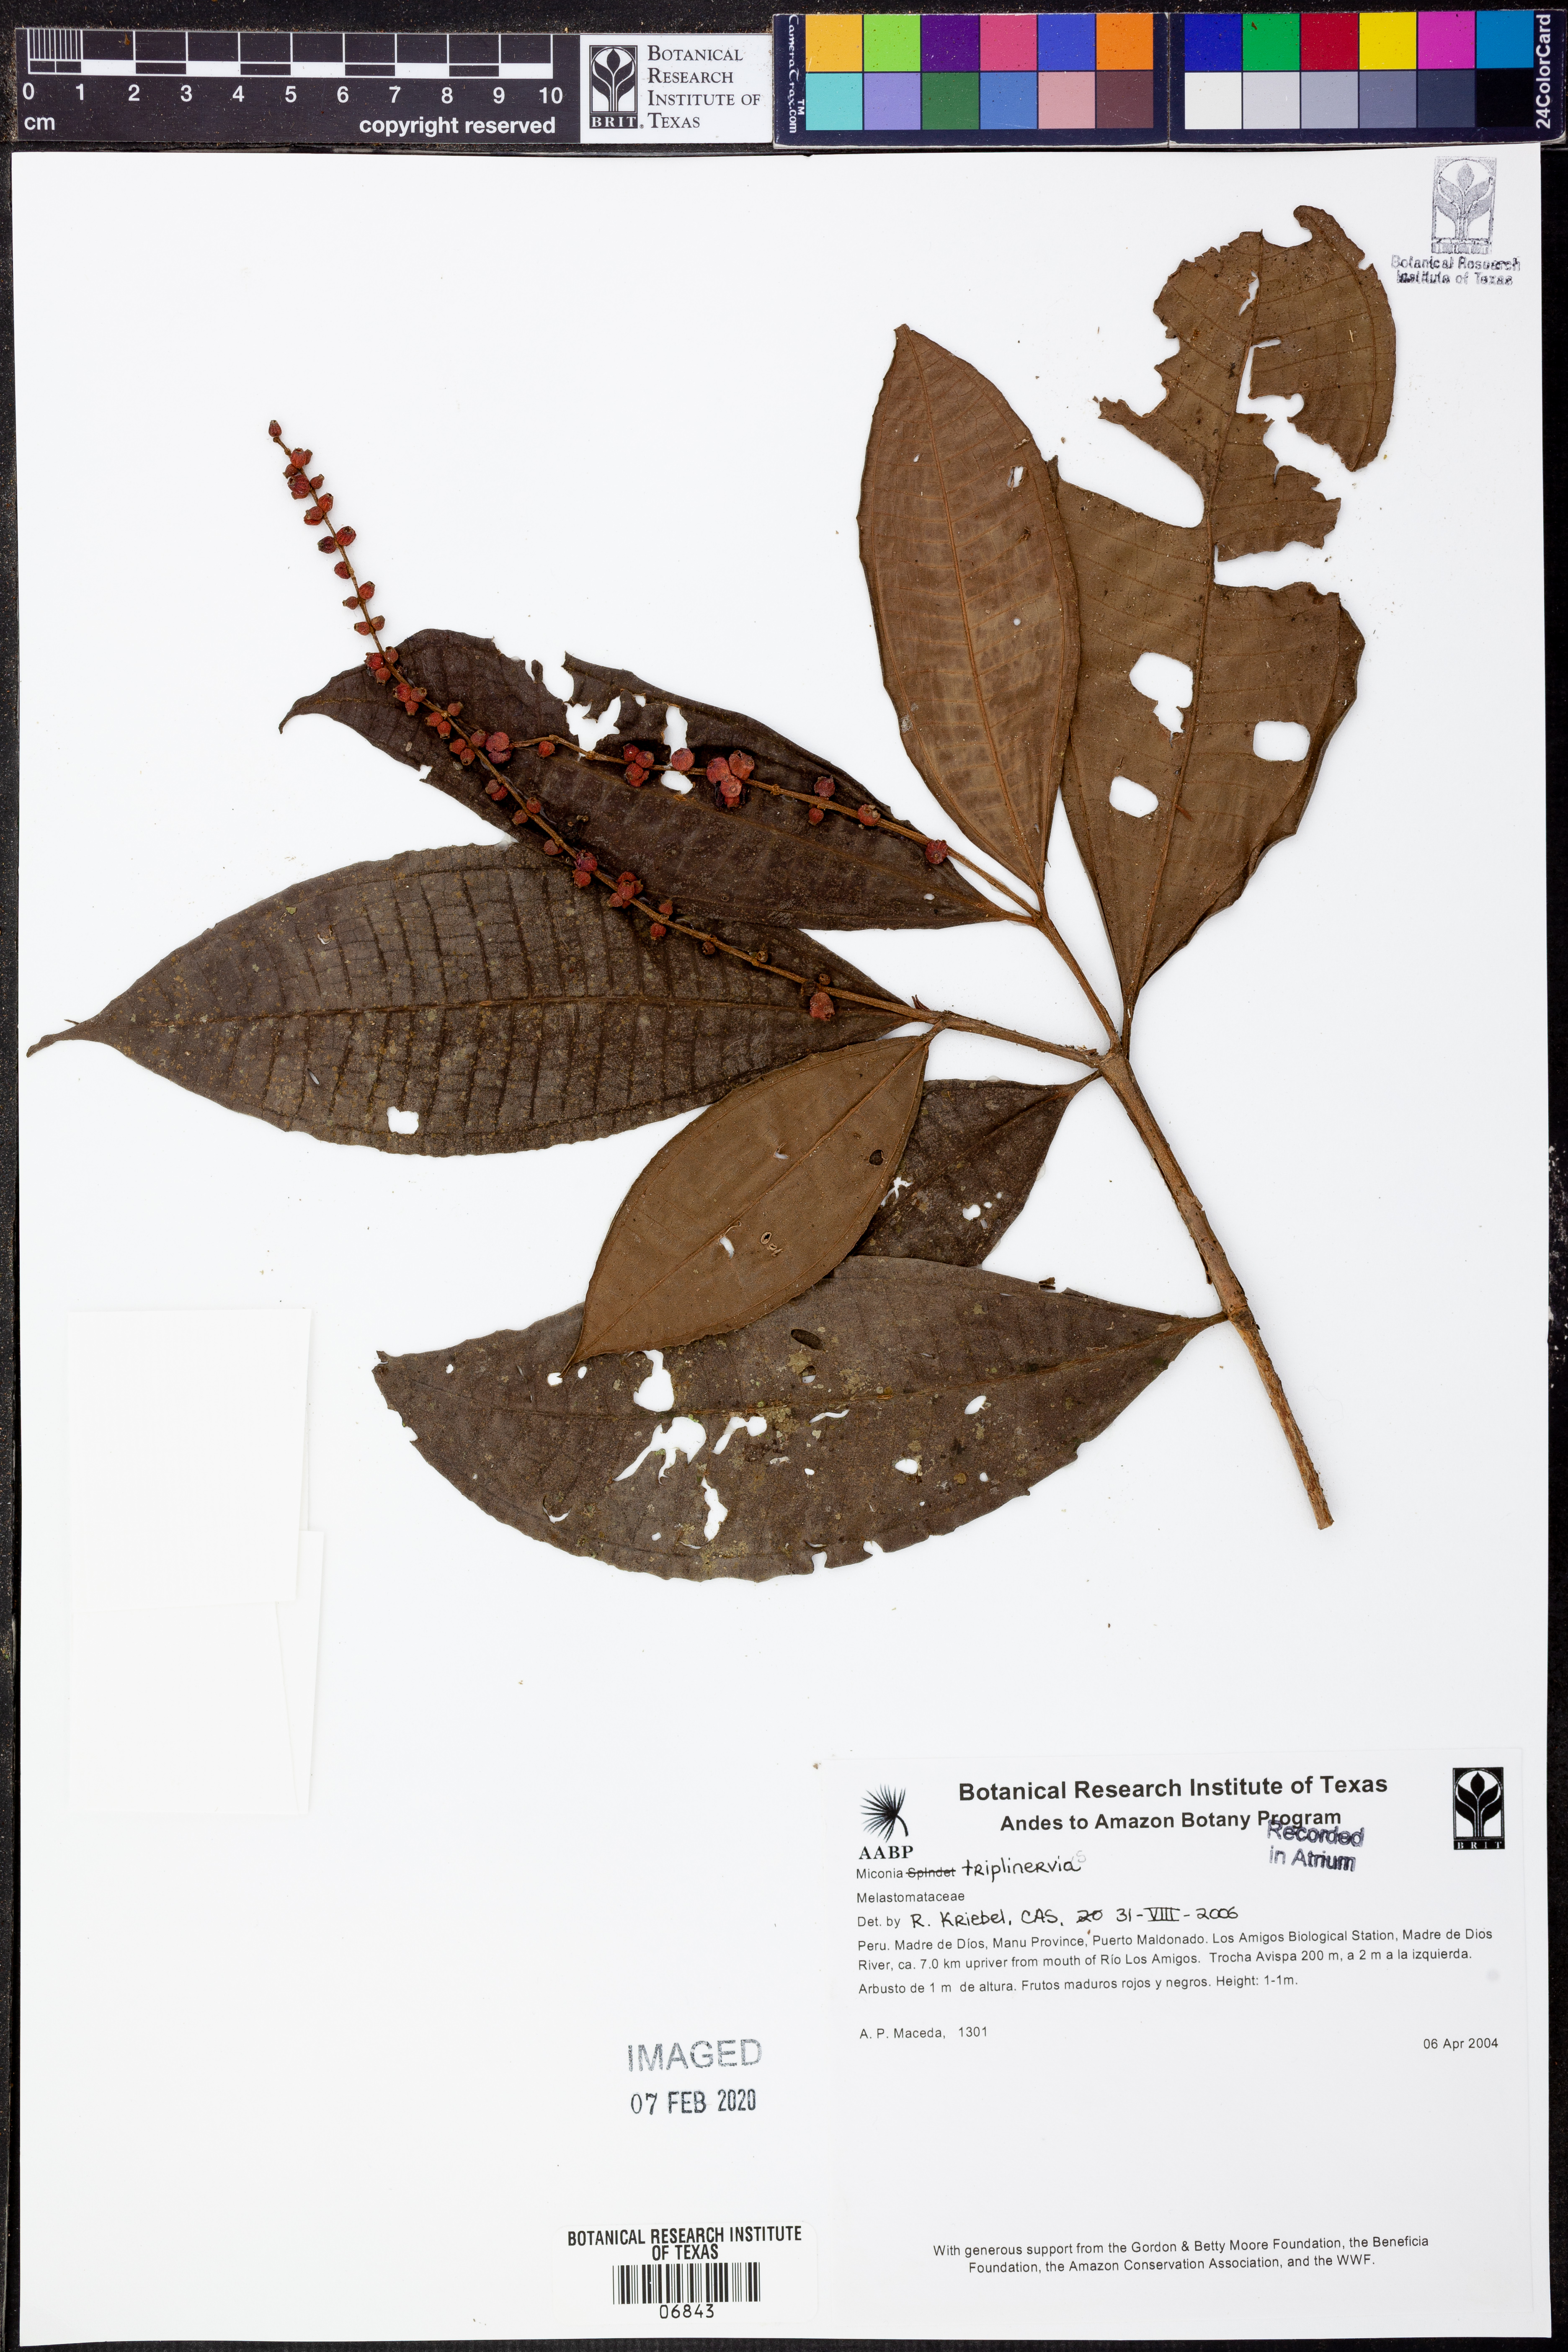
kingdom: Plantae
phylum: Tracheophyta
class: Magnoliopsida
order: Myrtales
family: Melastomataceae
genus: Miconia
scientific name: Miconia triplinervis
